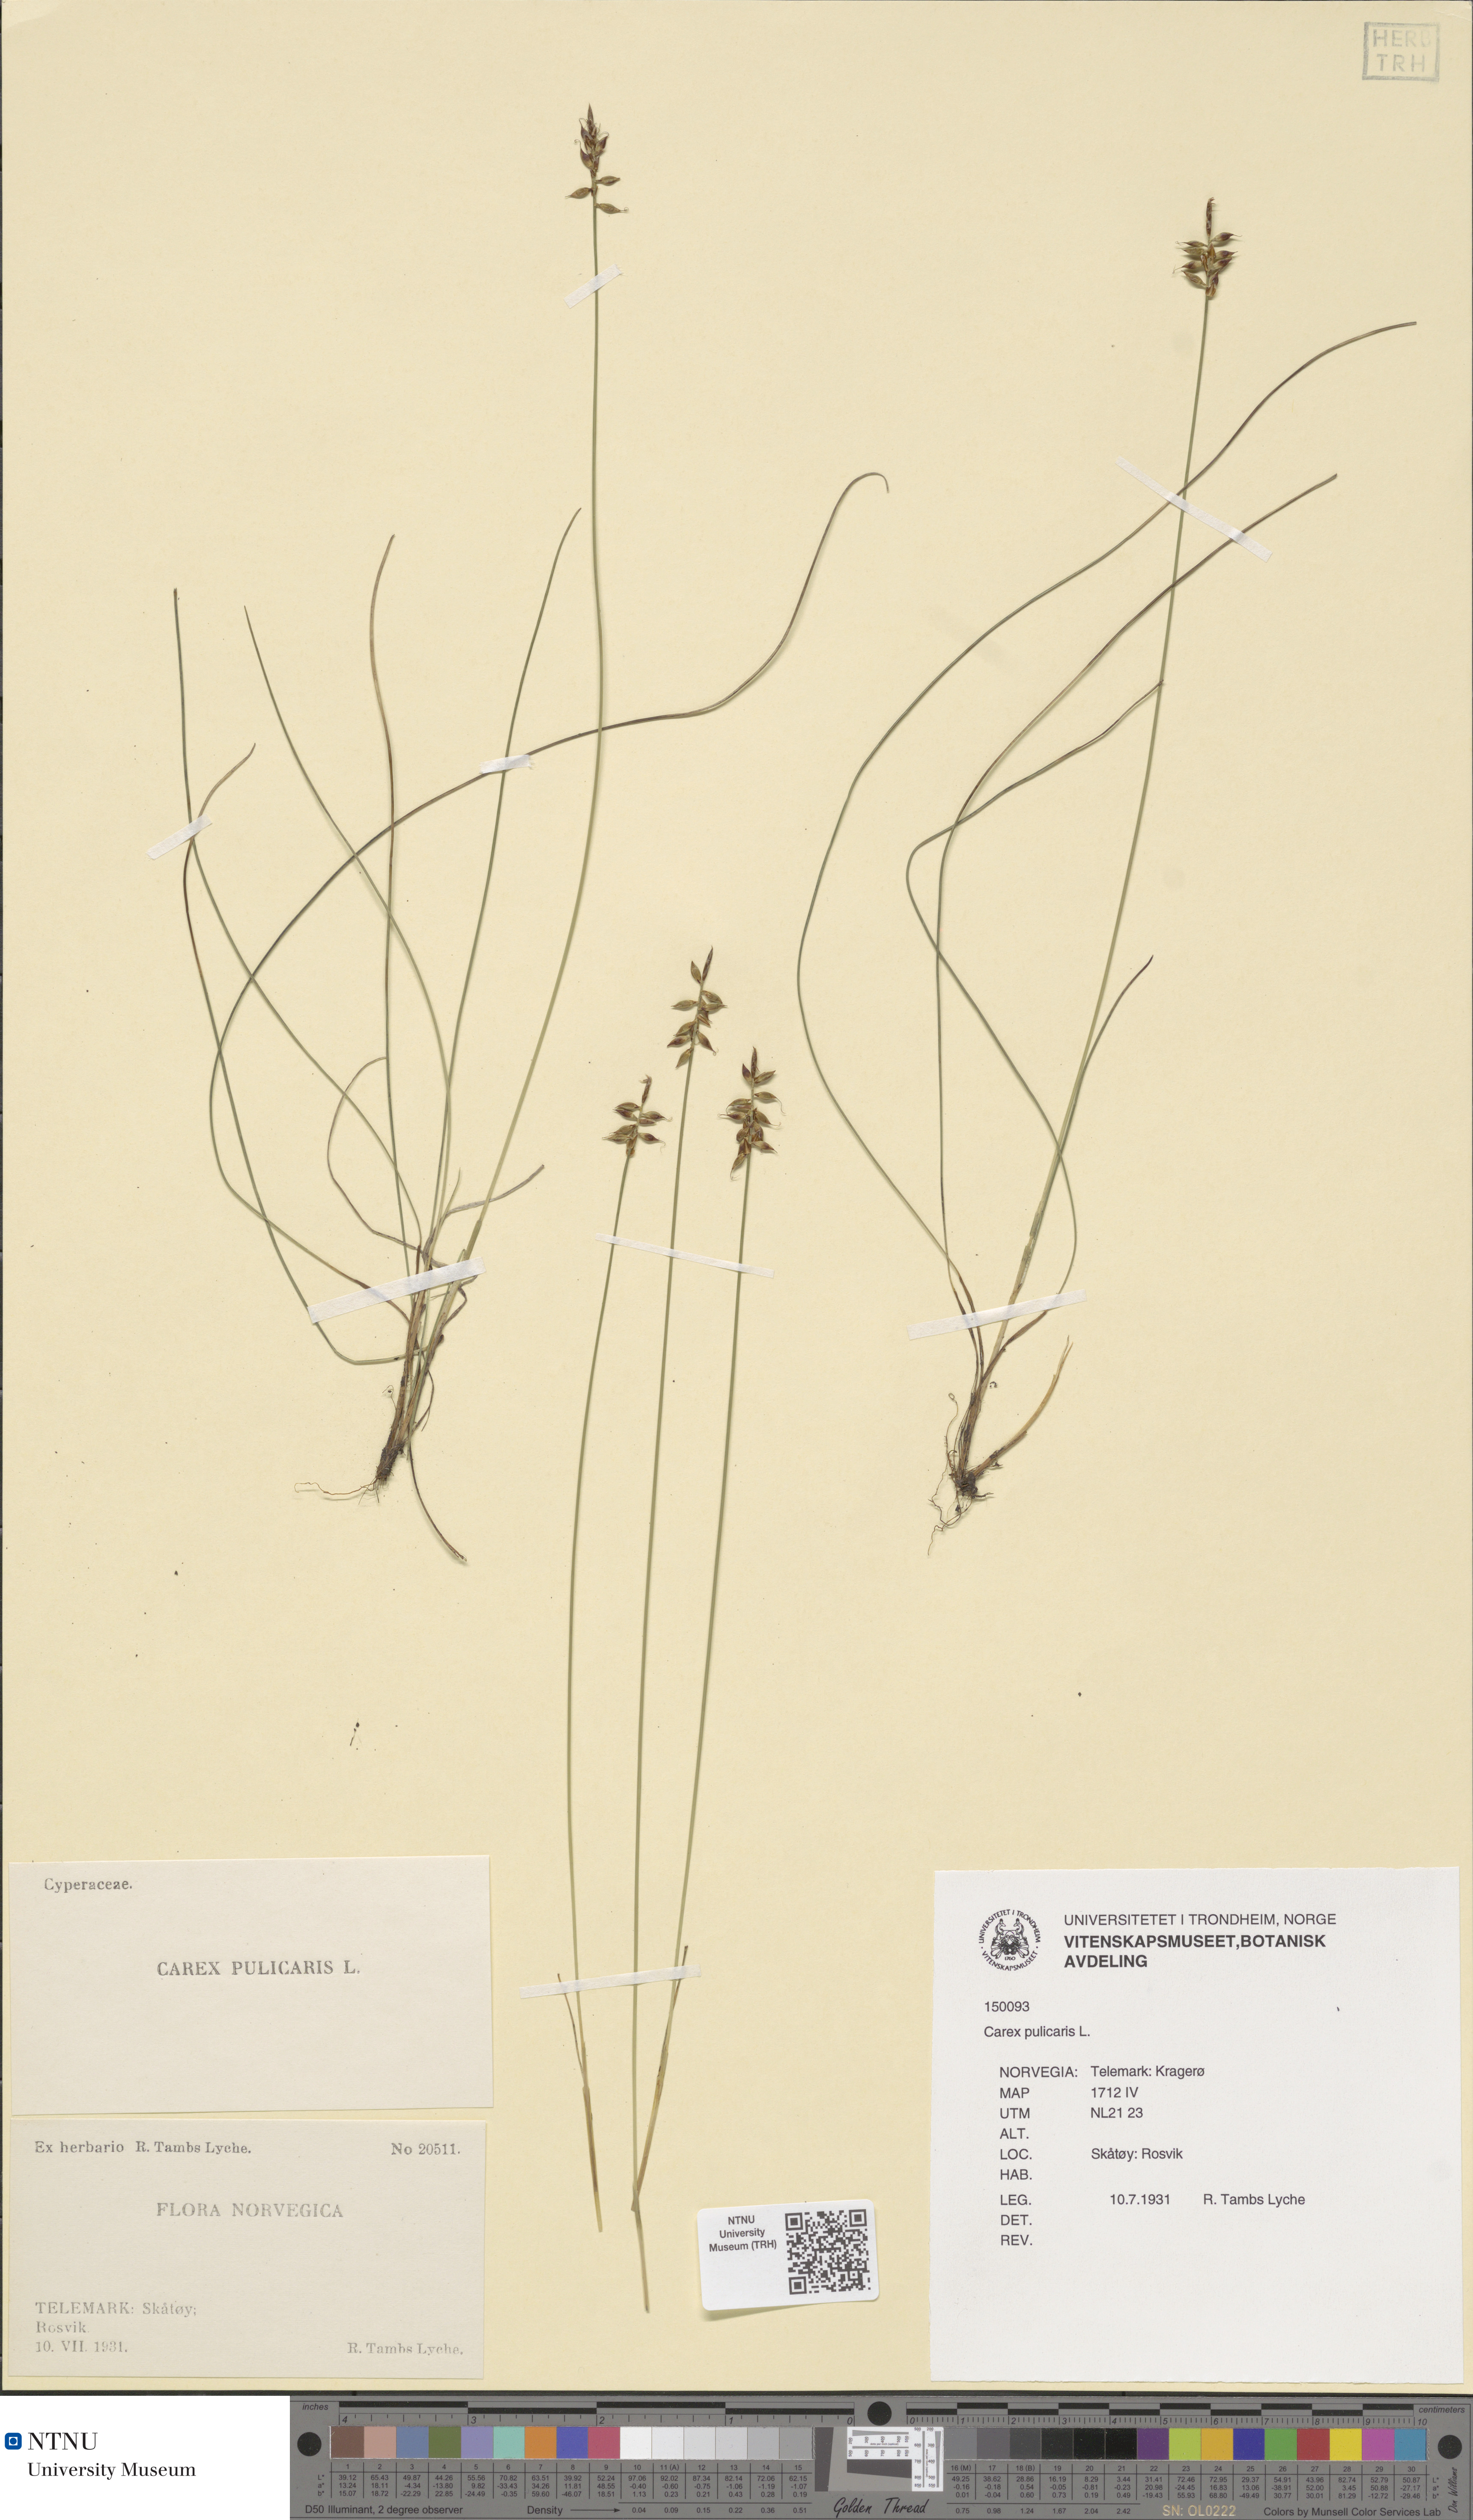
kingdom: Plantae
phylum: Tracheophyta
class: Liliopsida
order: Poales
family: Cyperaceae
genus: Carex
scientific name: Carex pulicaris
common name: Flea sedge
